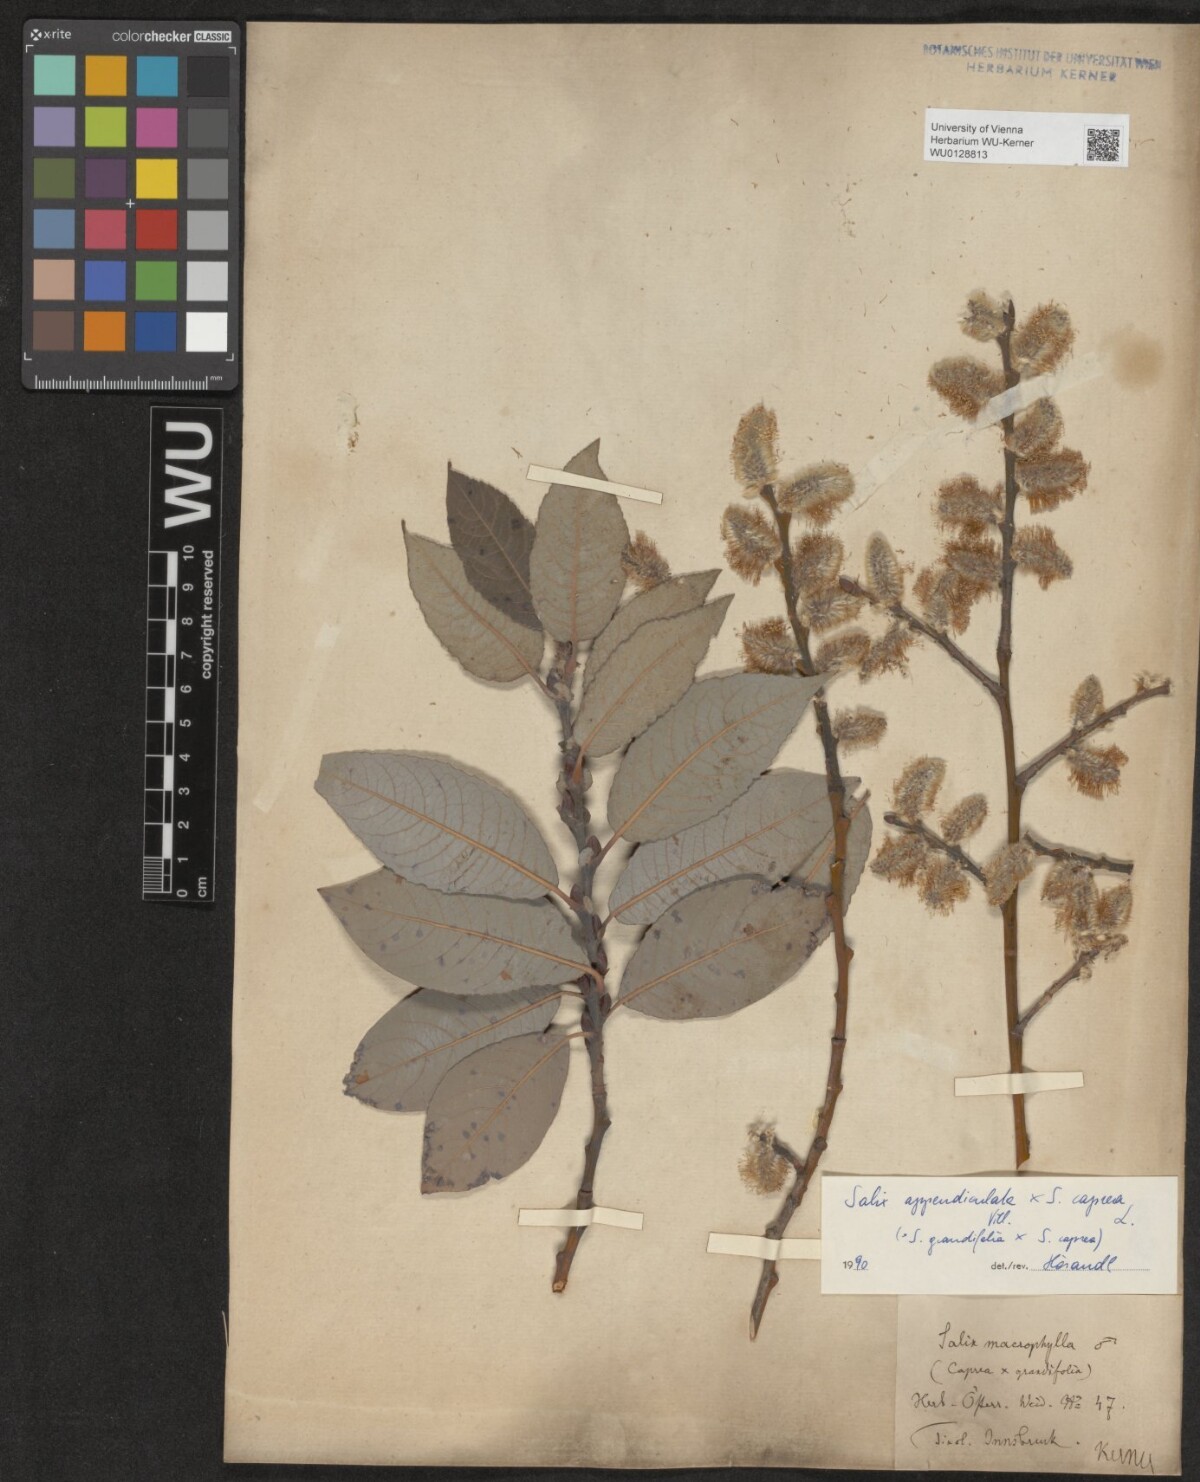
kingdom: Plantae
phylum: Tracheophyta
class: Magnoliopsida
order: Malpighiales
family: Salicaceae
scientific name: Salicaceae
